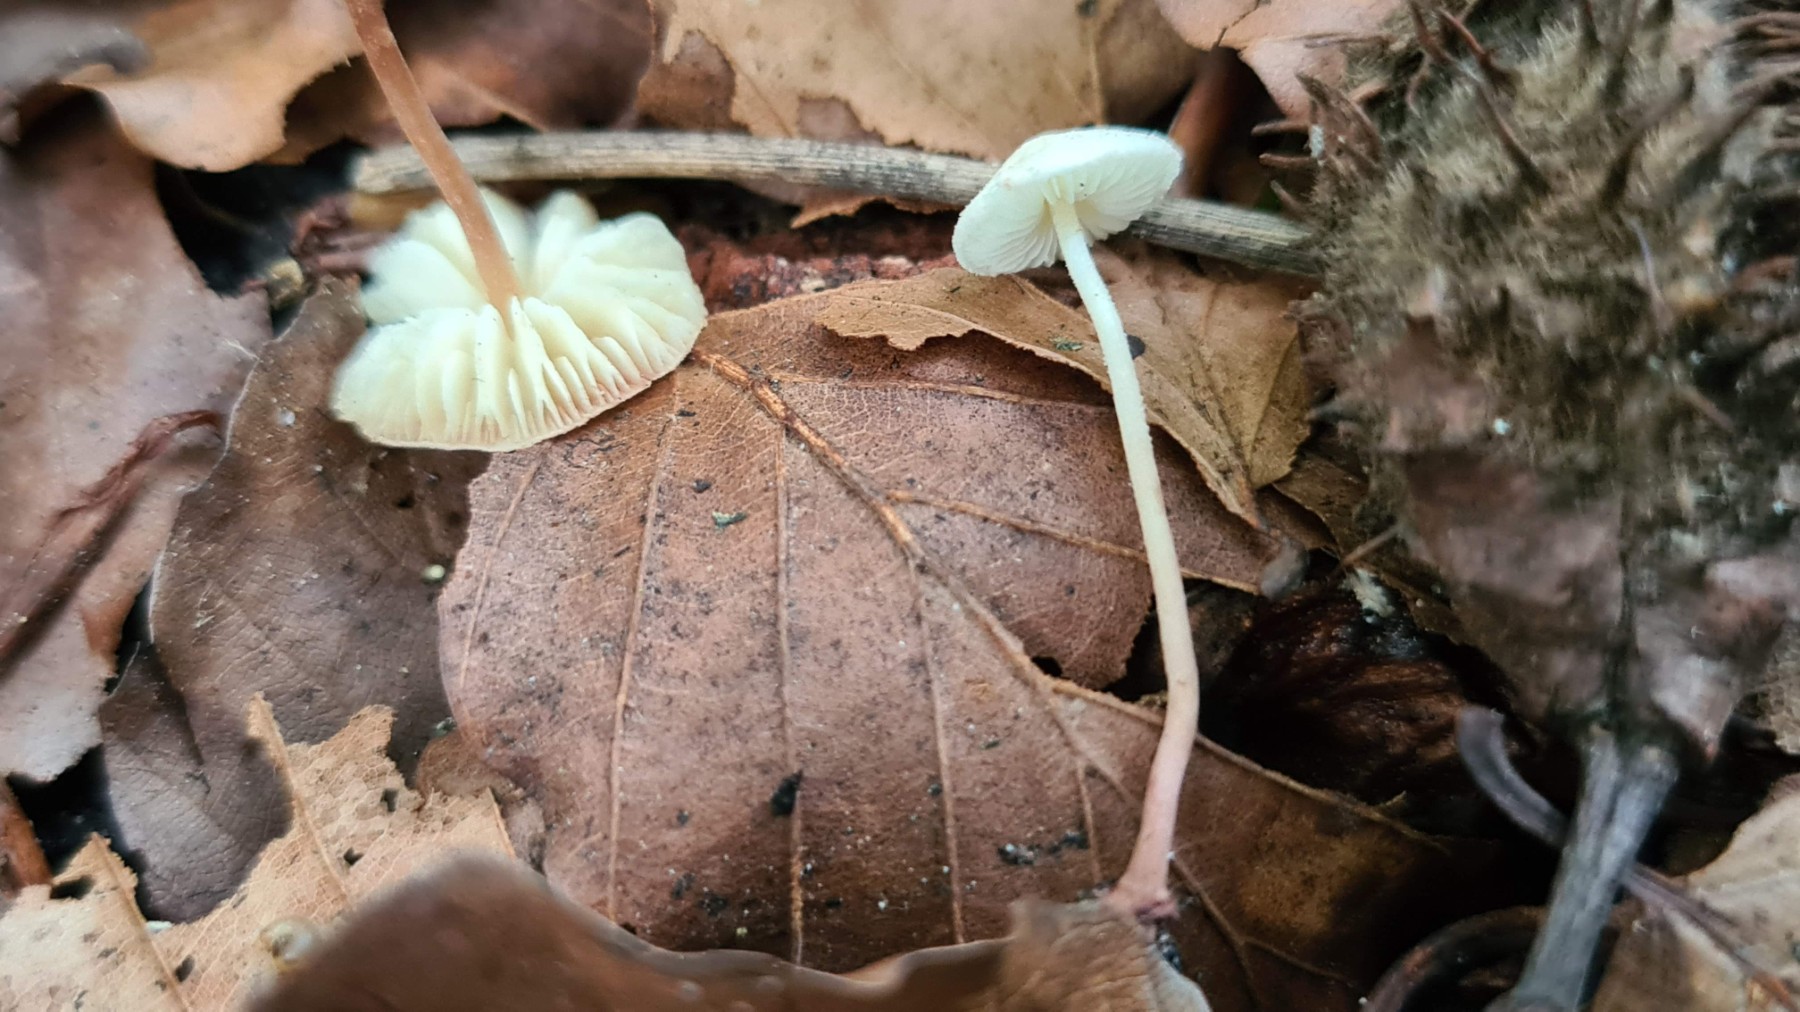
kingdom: Fungi
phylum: Basidiomycota
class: Agaricomycetes
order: Agaricales
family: Agaricaceae
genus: Cystolepiota
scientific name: Cystolepiota seminuda
